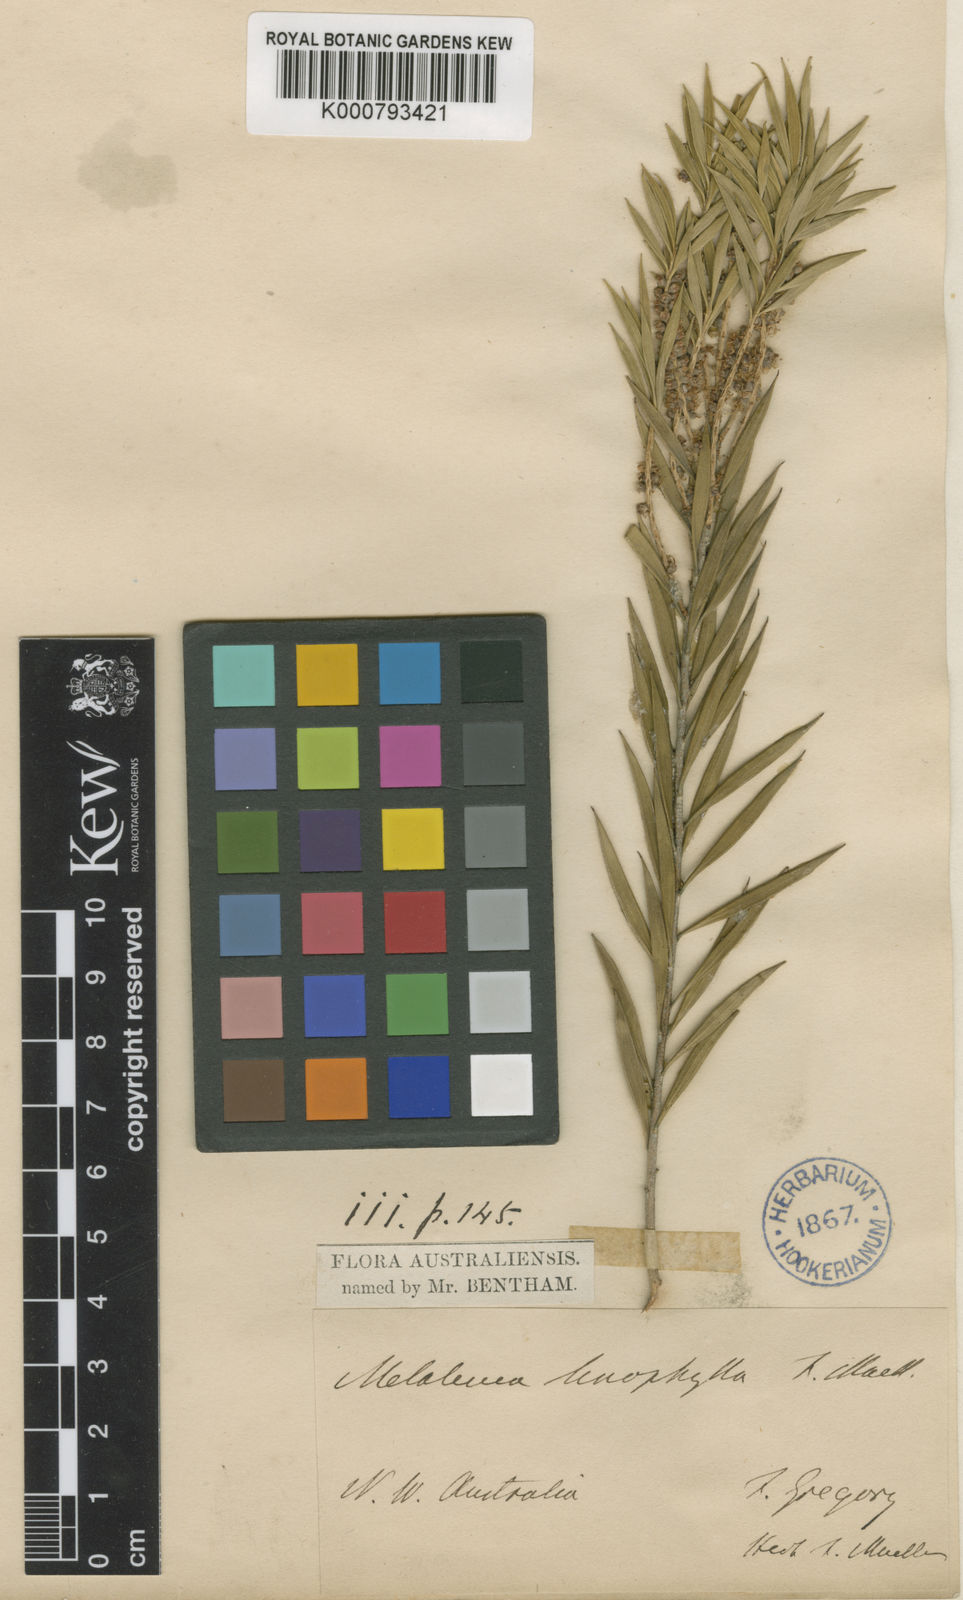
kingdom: Plantae
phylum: Tracheophyta
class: Magnoliopsida
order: Myrtales
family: Myrtaceae
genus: Melaleuca
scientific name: Melaleuca linophylla
